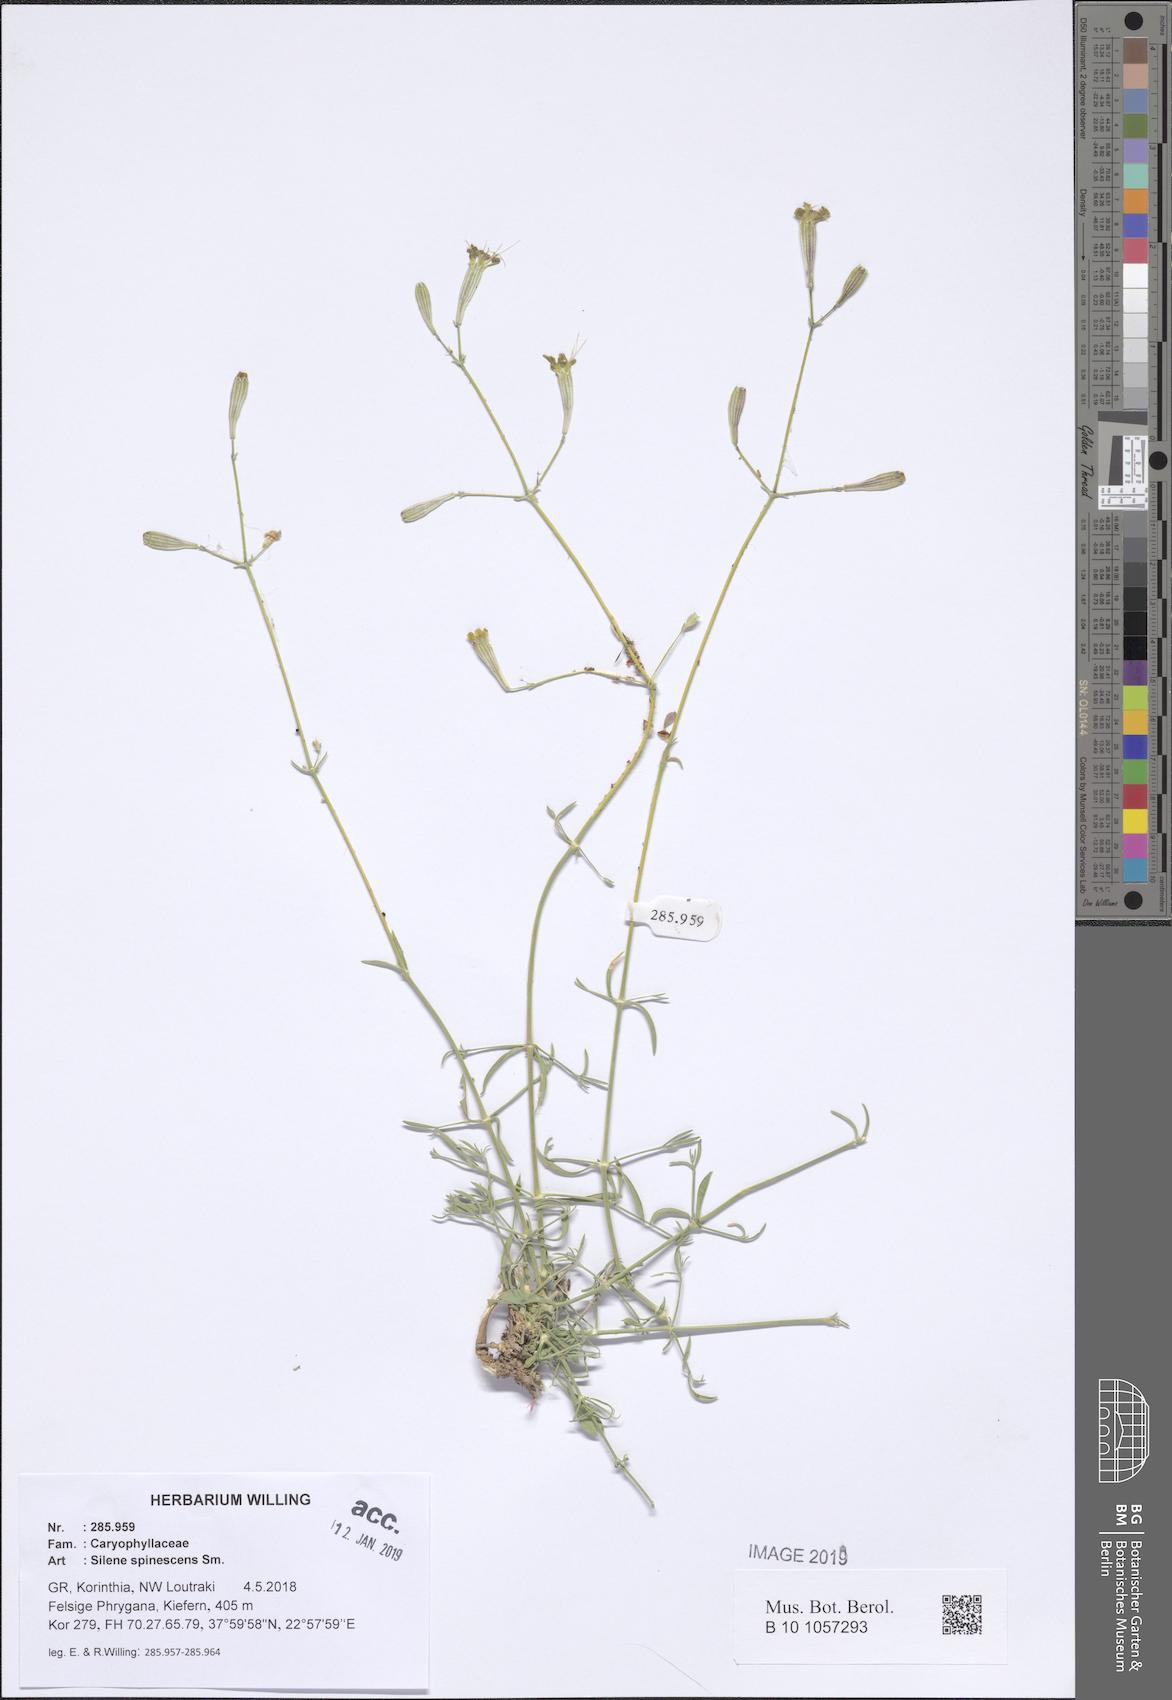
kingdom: Plantae
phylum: Tracheophyta
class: Magnoliopsida
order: Caryophyllales
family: Caryophyllaceae
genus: Silene
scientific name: Silene spinescens
